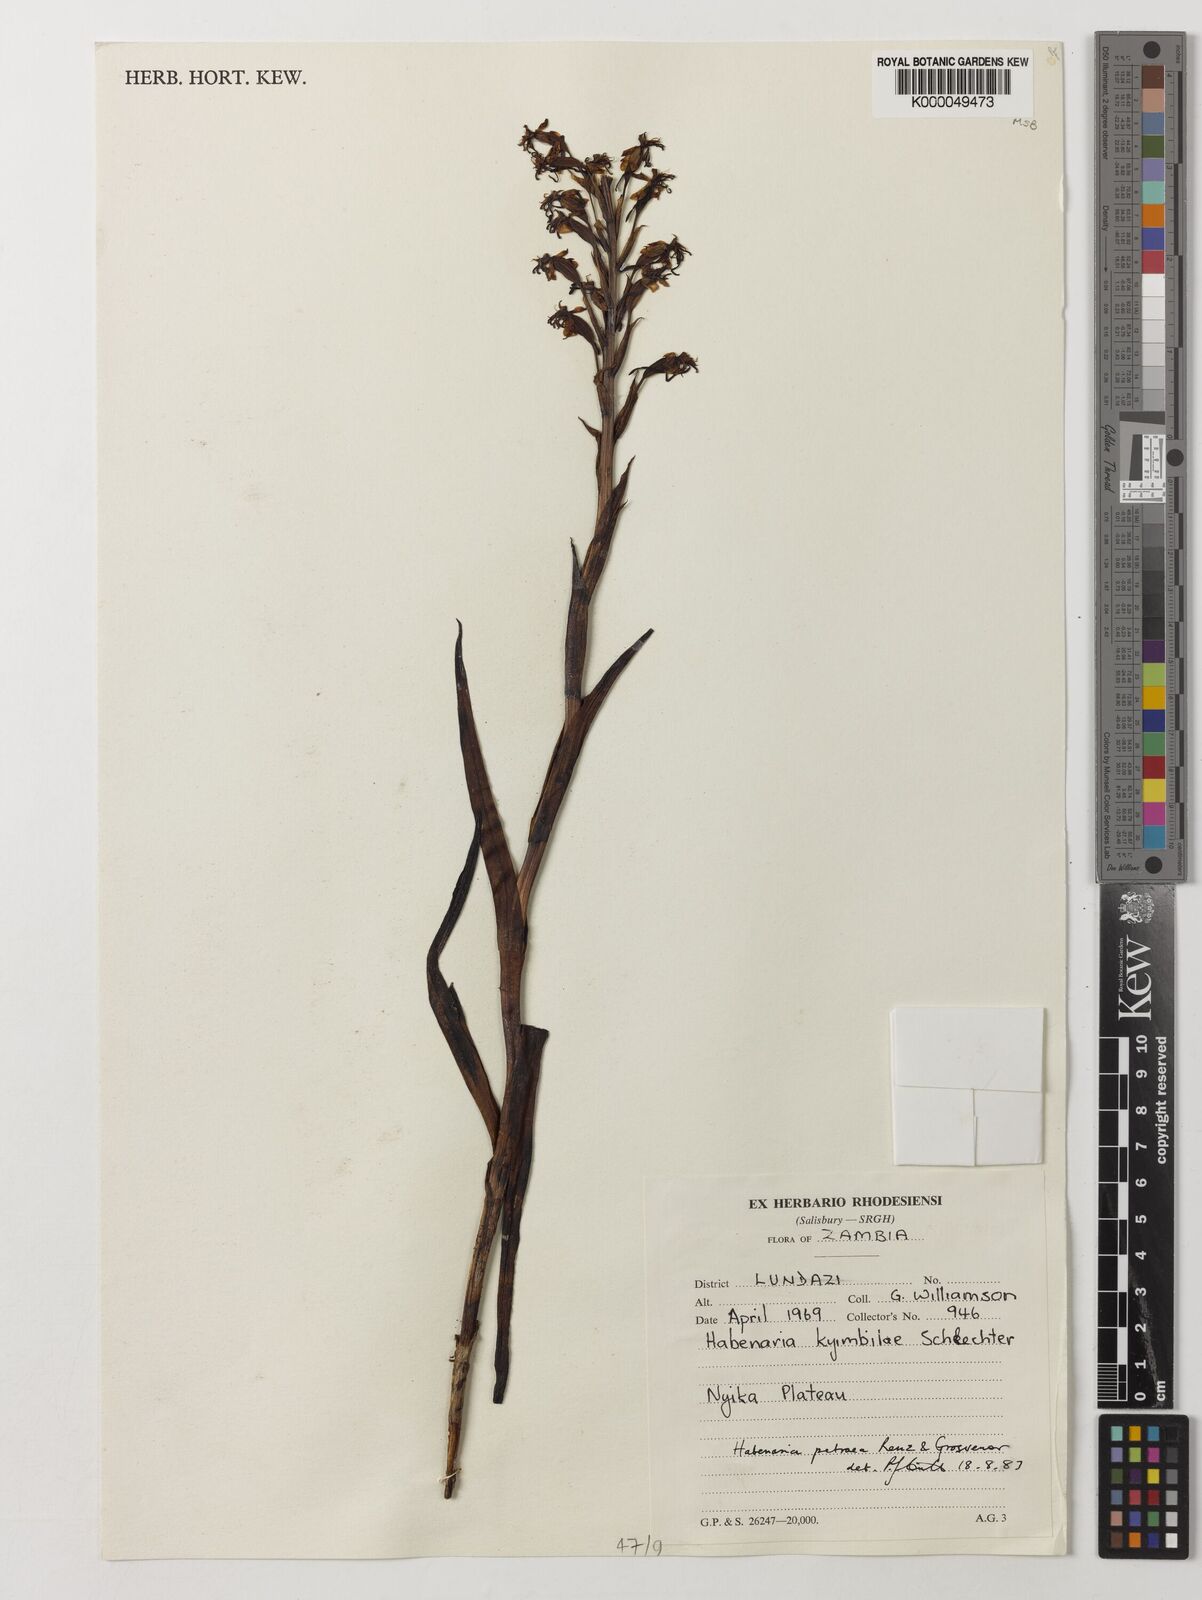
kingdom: Plantae
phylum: Tracheophyta
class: Liliopsida
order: Asparagales
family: Orchidaceae
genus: Habenaria
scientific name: Habenaria petraea
